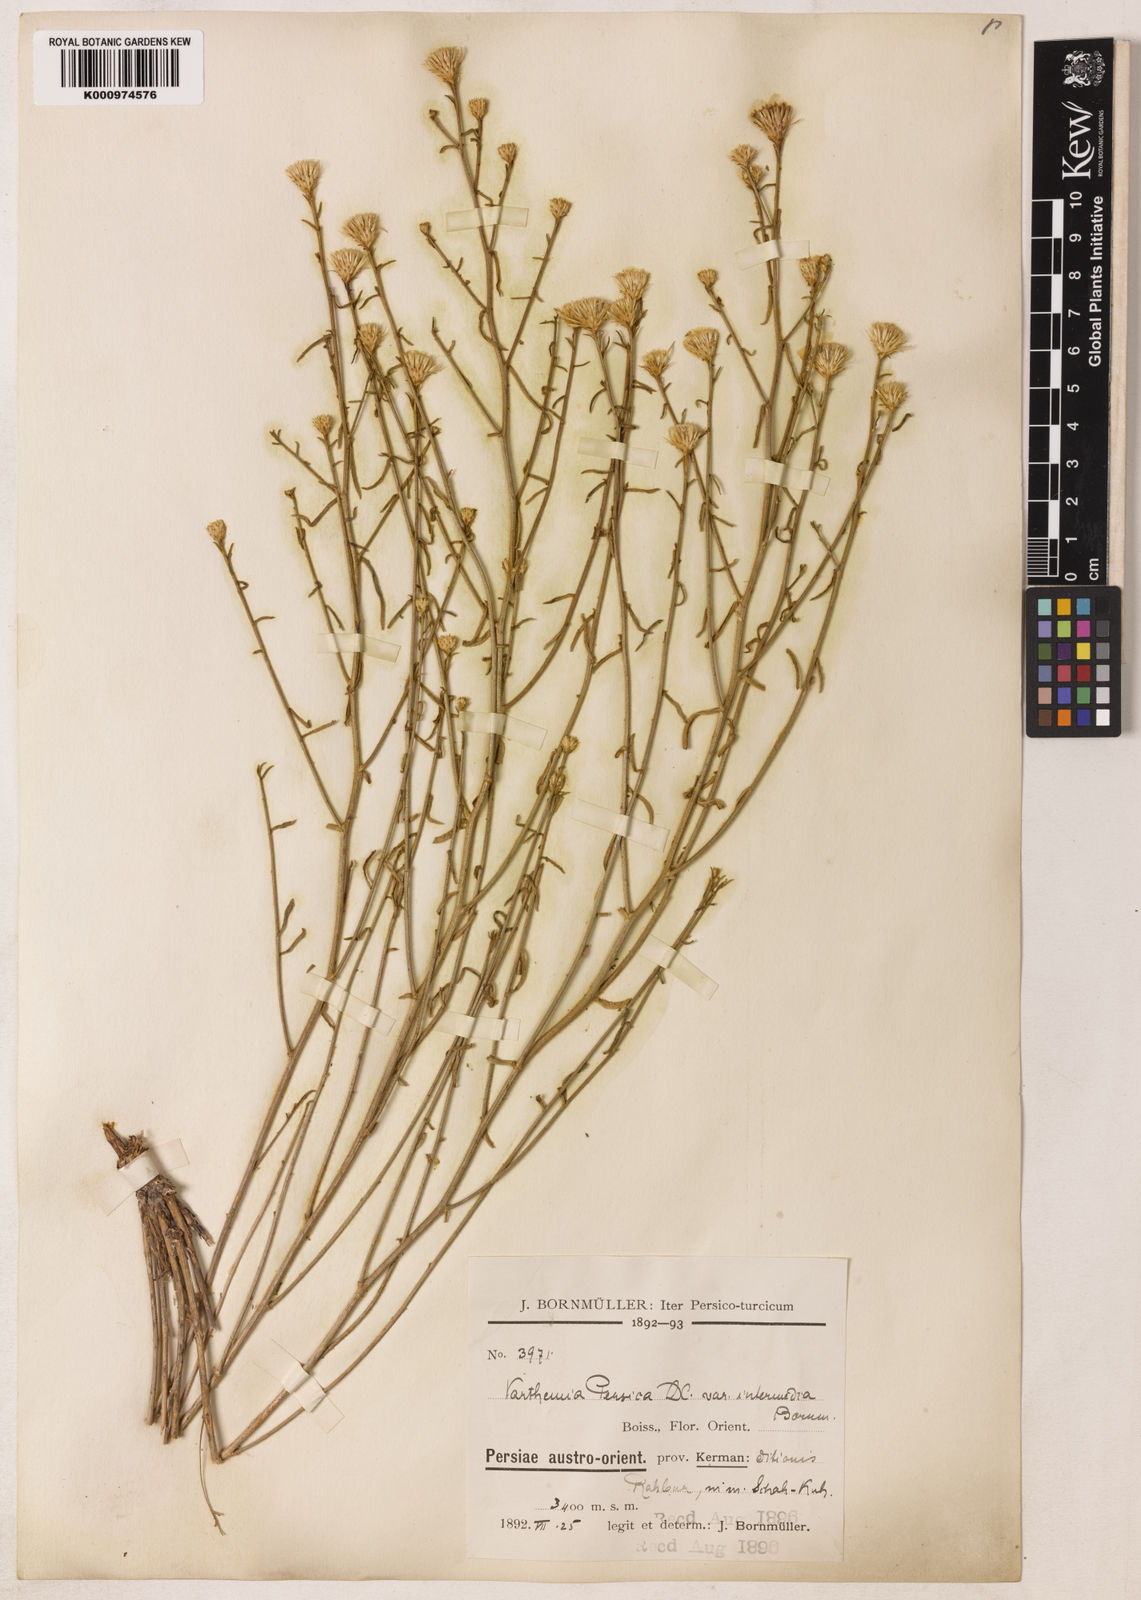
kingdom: Plantae
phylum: Tracheophyta
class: Magnoliopsida
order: Asterales
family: Asteraceae
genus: Pentanema
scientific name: Pentanema persicum
